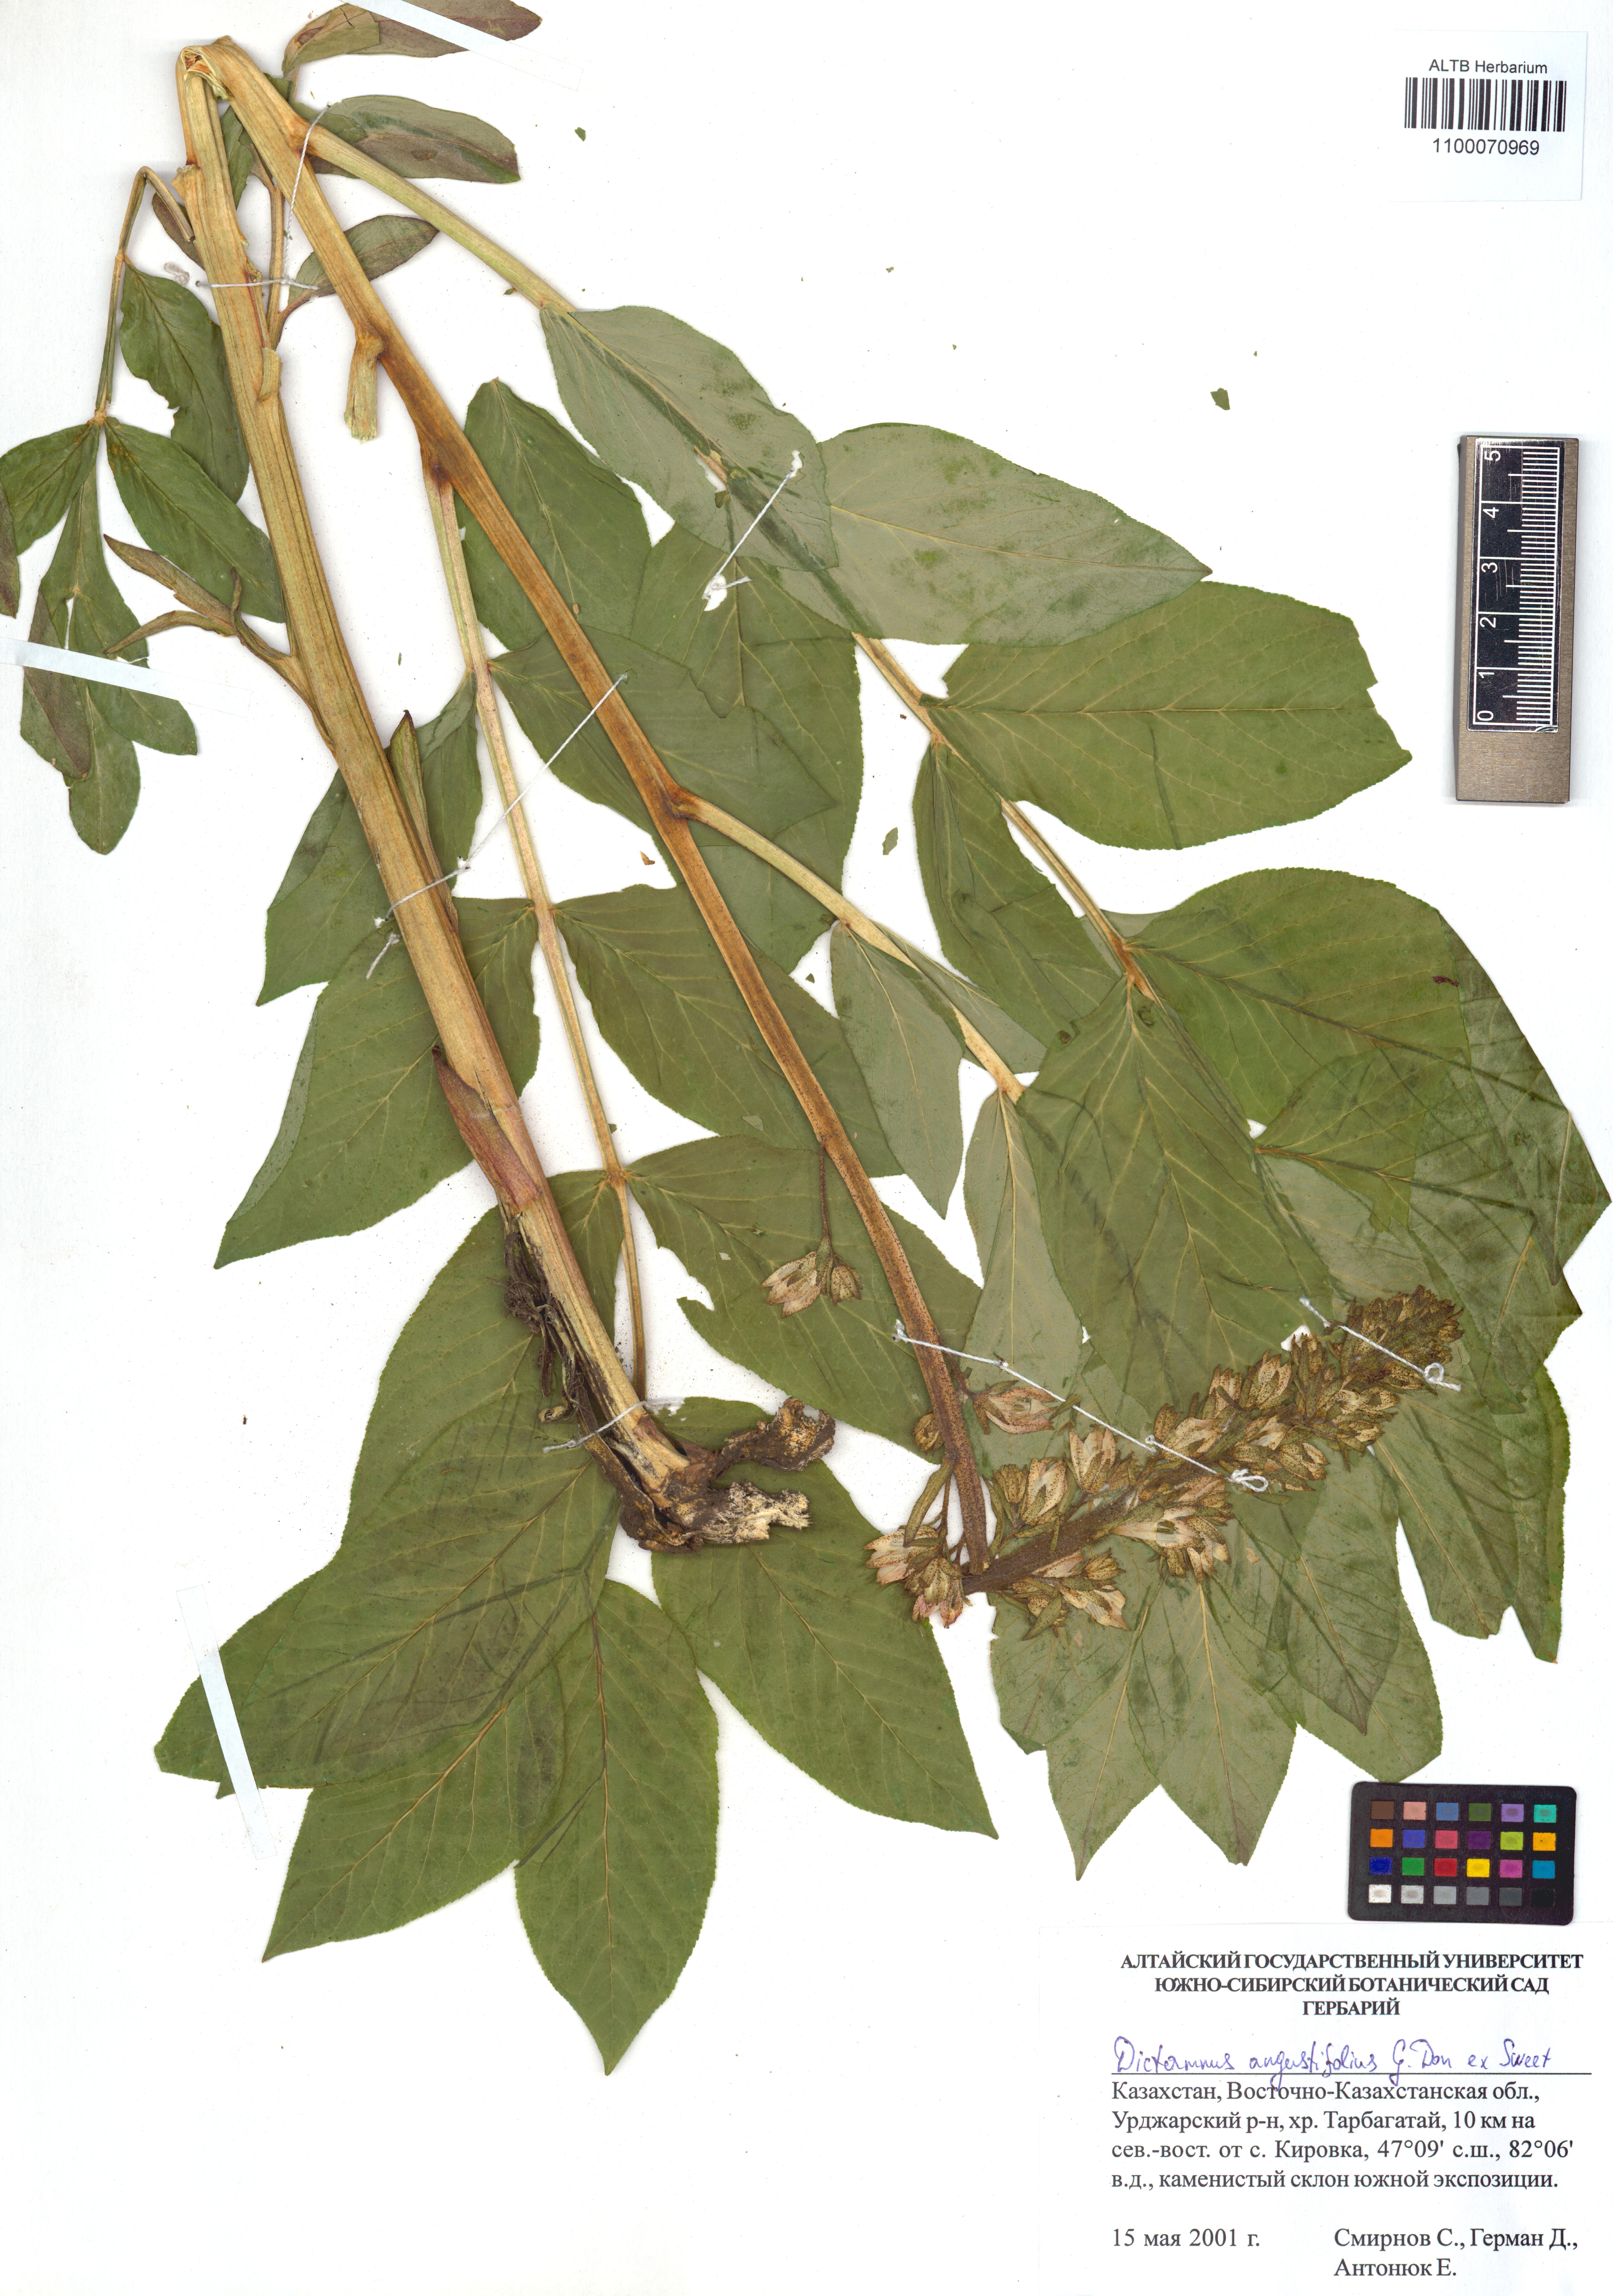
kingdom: Plantae
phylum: Tracheophyta
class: Magnoliopsida
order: Sapindales
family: Rutaceae
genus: Dictamnus
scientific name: Dictamnus albus
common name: Gasplant
